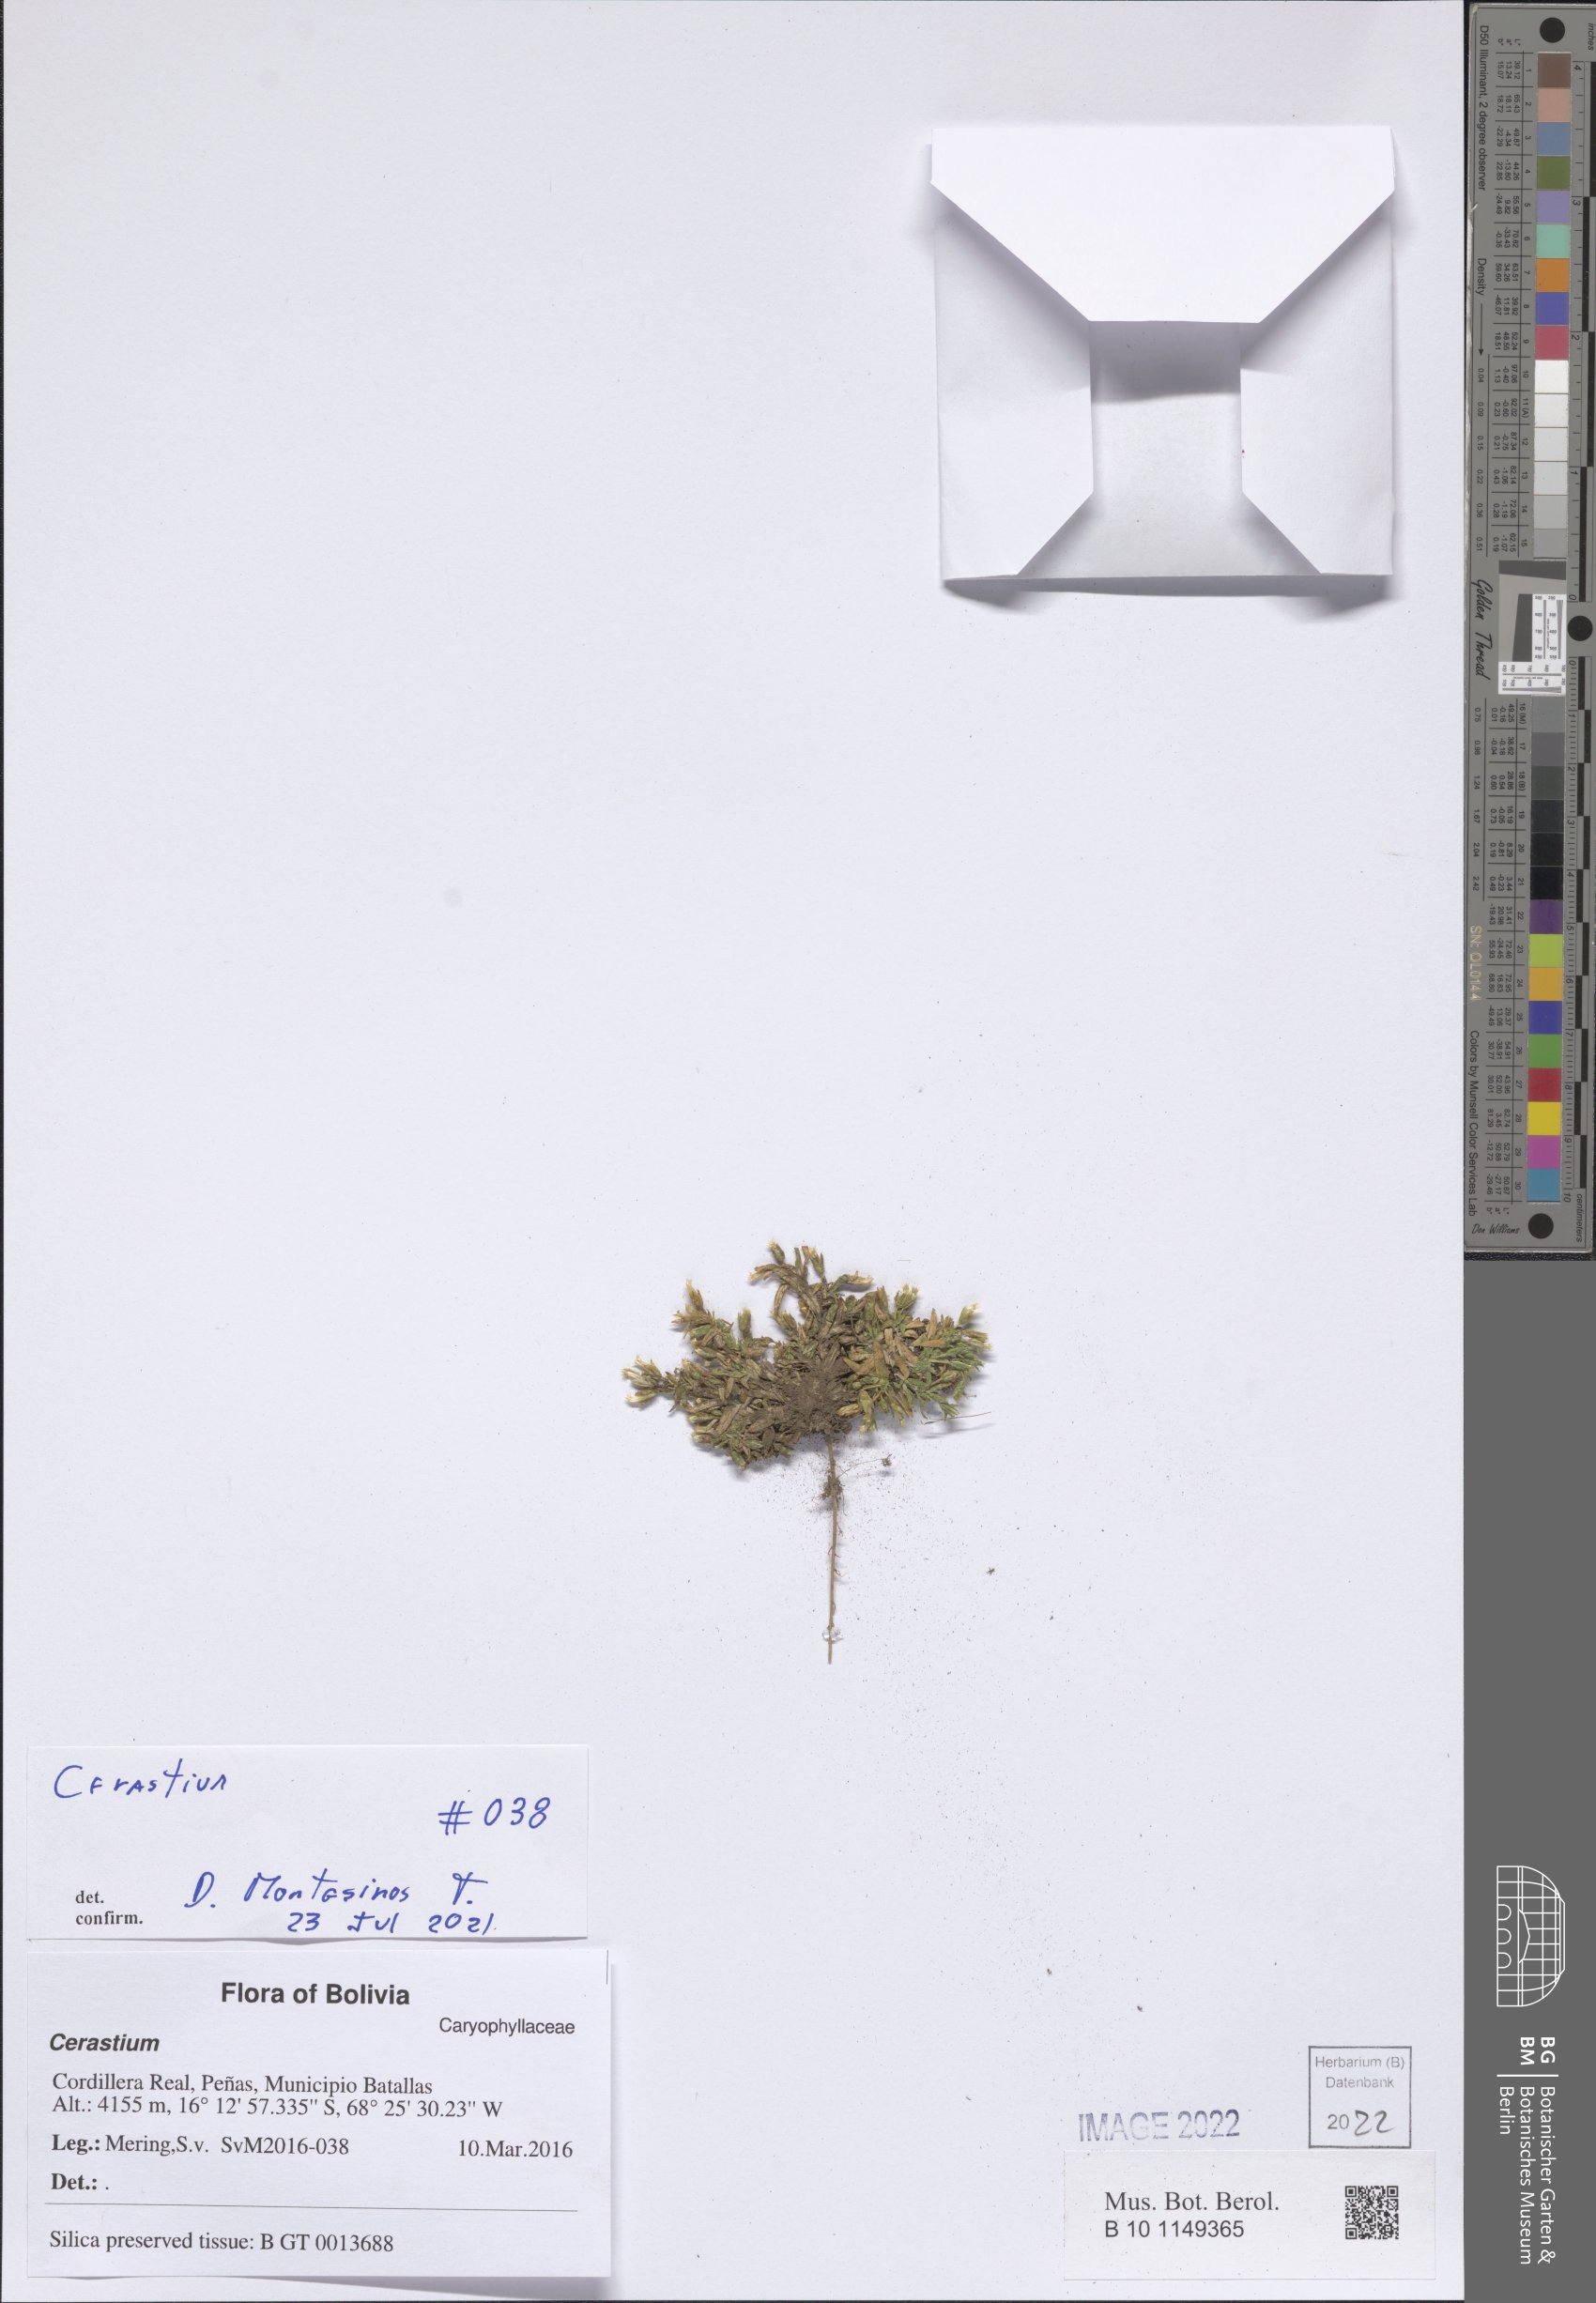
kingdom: Plantae
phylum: Tracheophyta
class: Magnoliopsida
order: Caryophyllales
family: Caryophyllaceae
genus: Cerastium
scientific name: Cerastium
